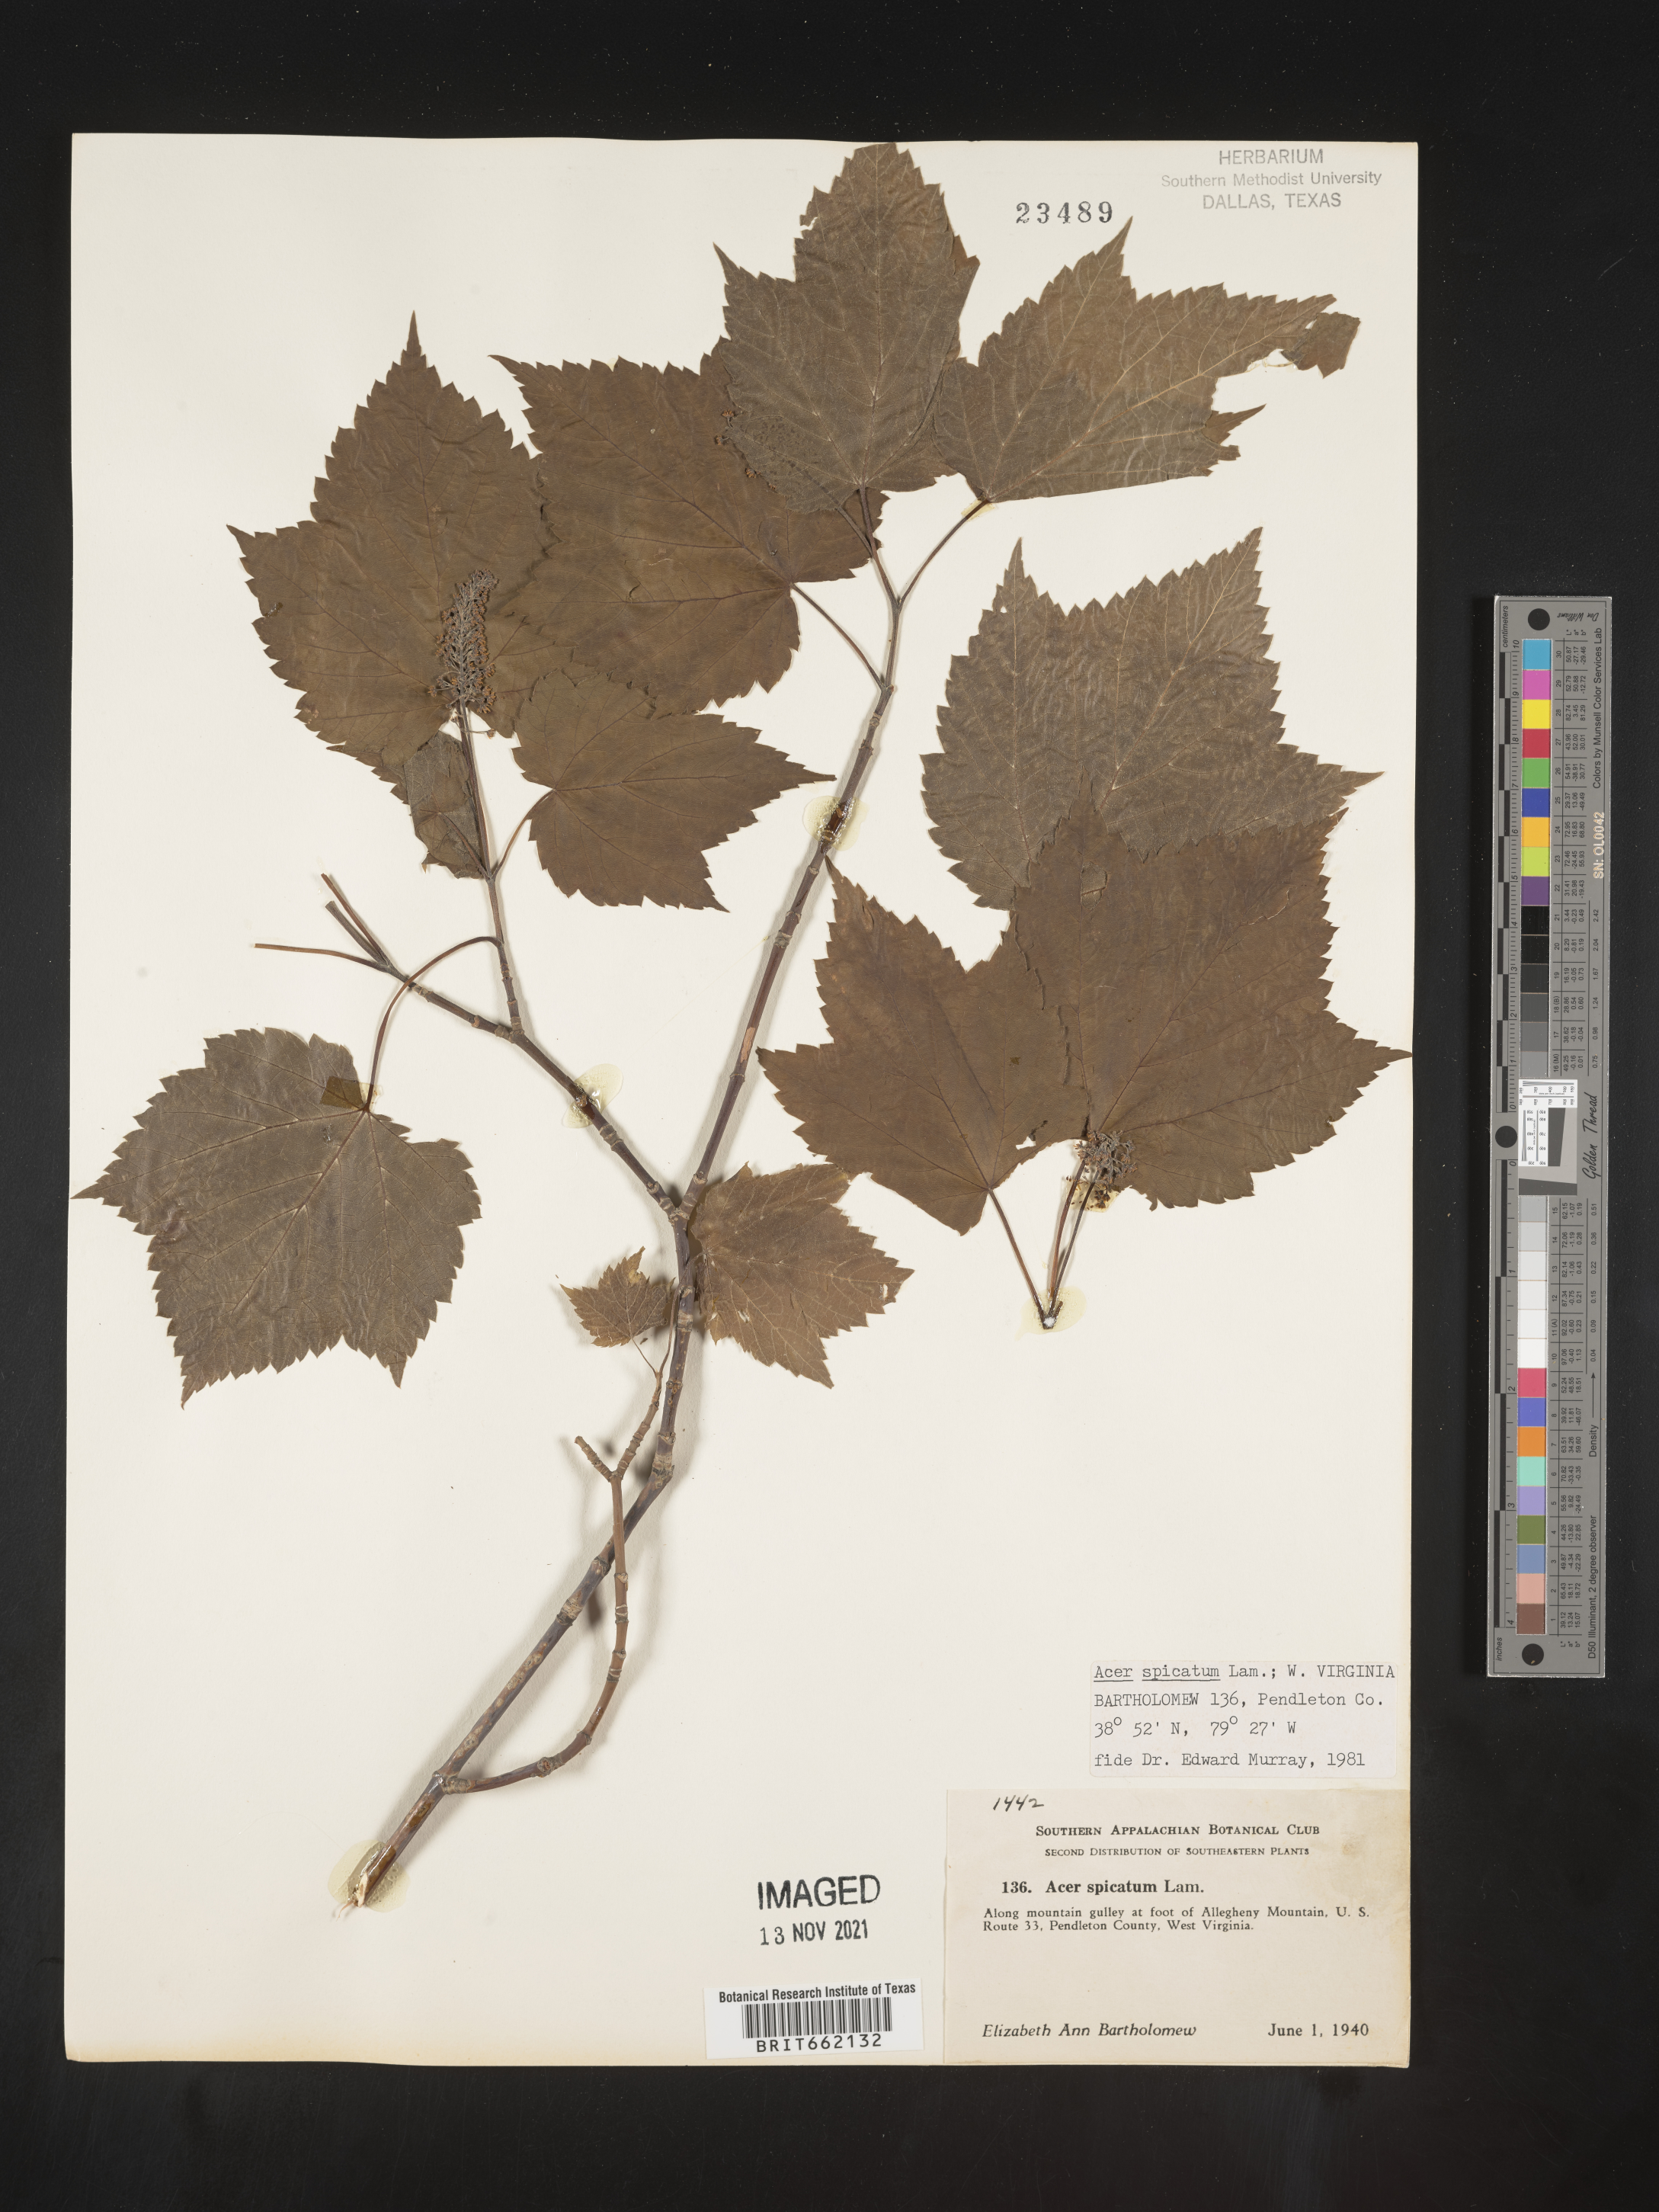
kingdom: Plantae
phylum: Tracheophyta
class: Magnoliopsida
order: Sapindales
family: Sapindaceae
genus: Acer
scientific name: Acer spicatum
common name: Mountain maple
